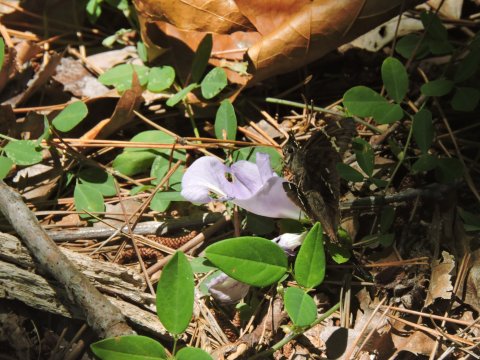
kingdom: Animalia
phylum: Arthropoda
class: Insecta
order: Lepidoptera
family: Hesperiidae
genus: Autochton
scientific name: Autochton
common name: Southern Cloudywing
